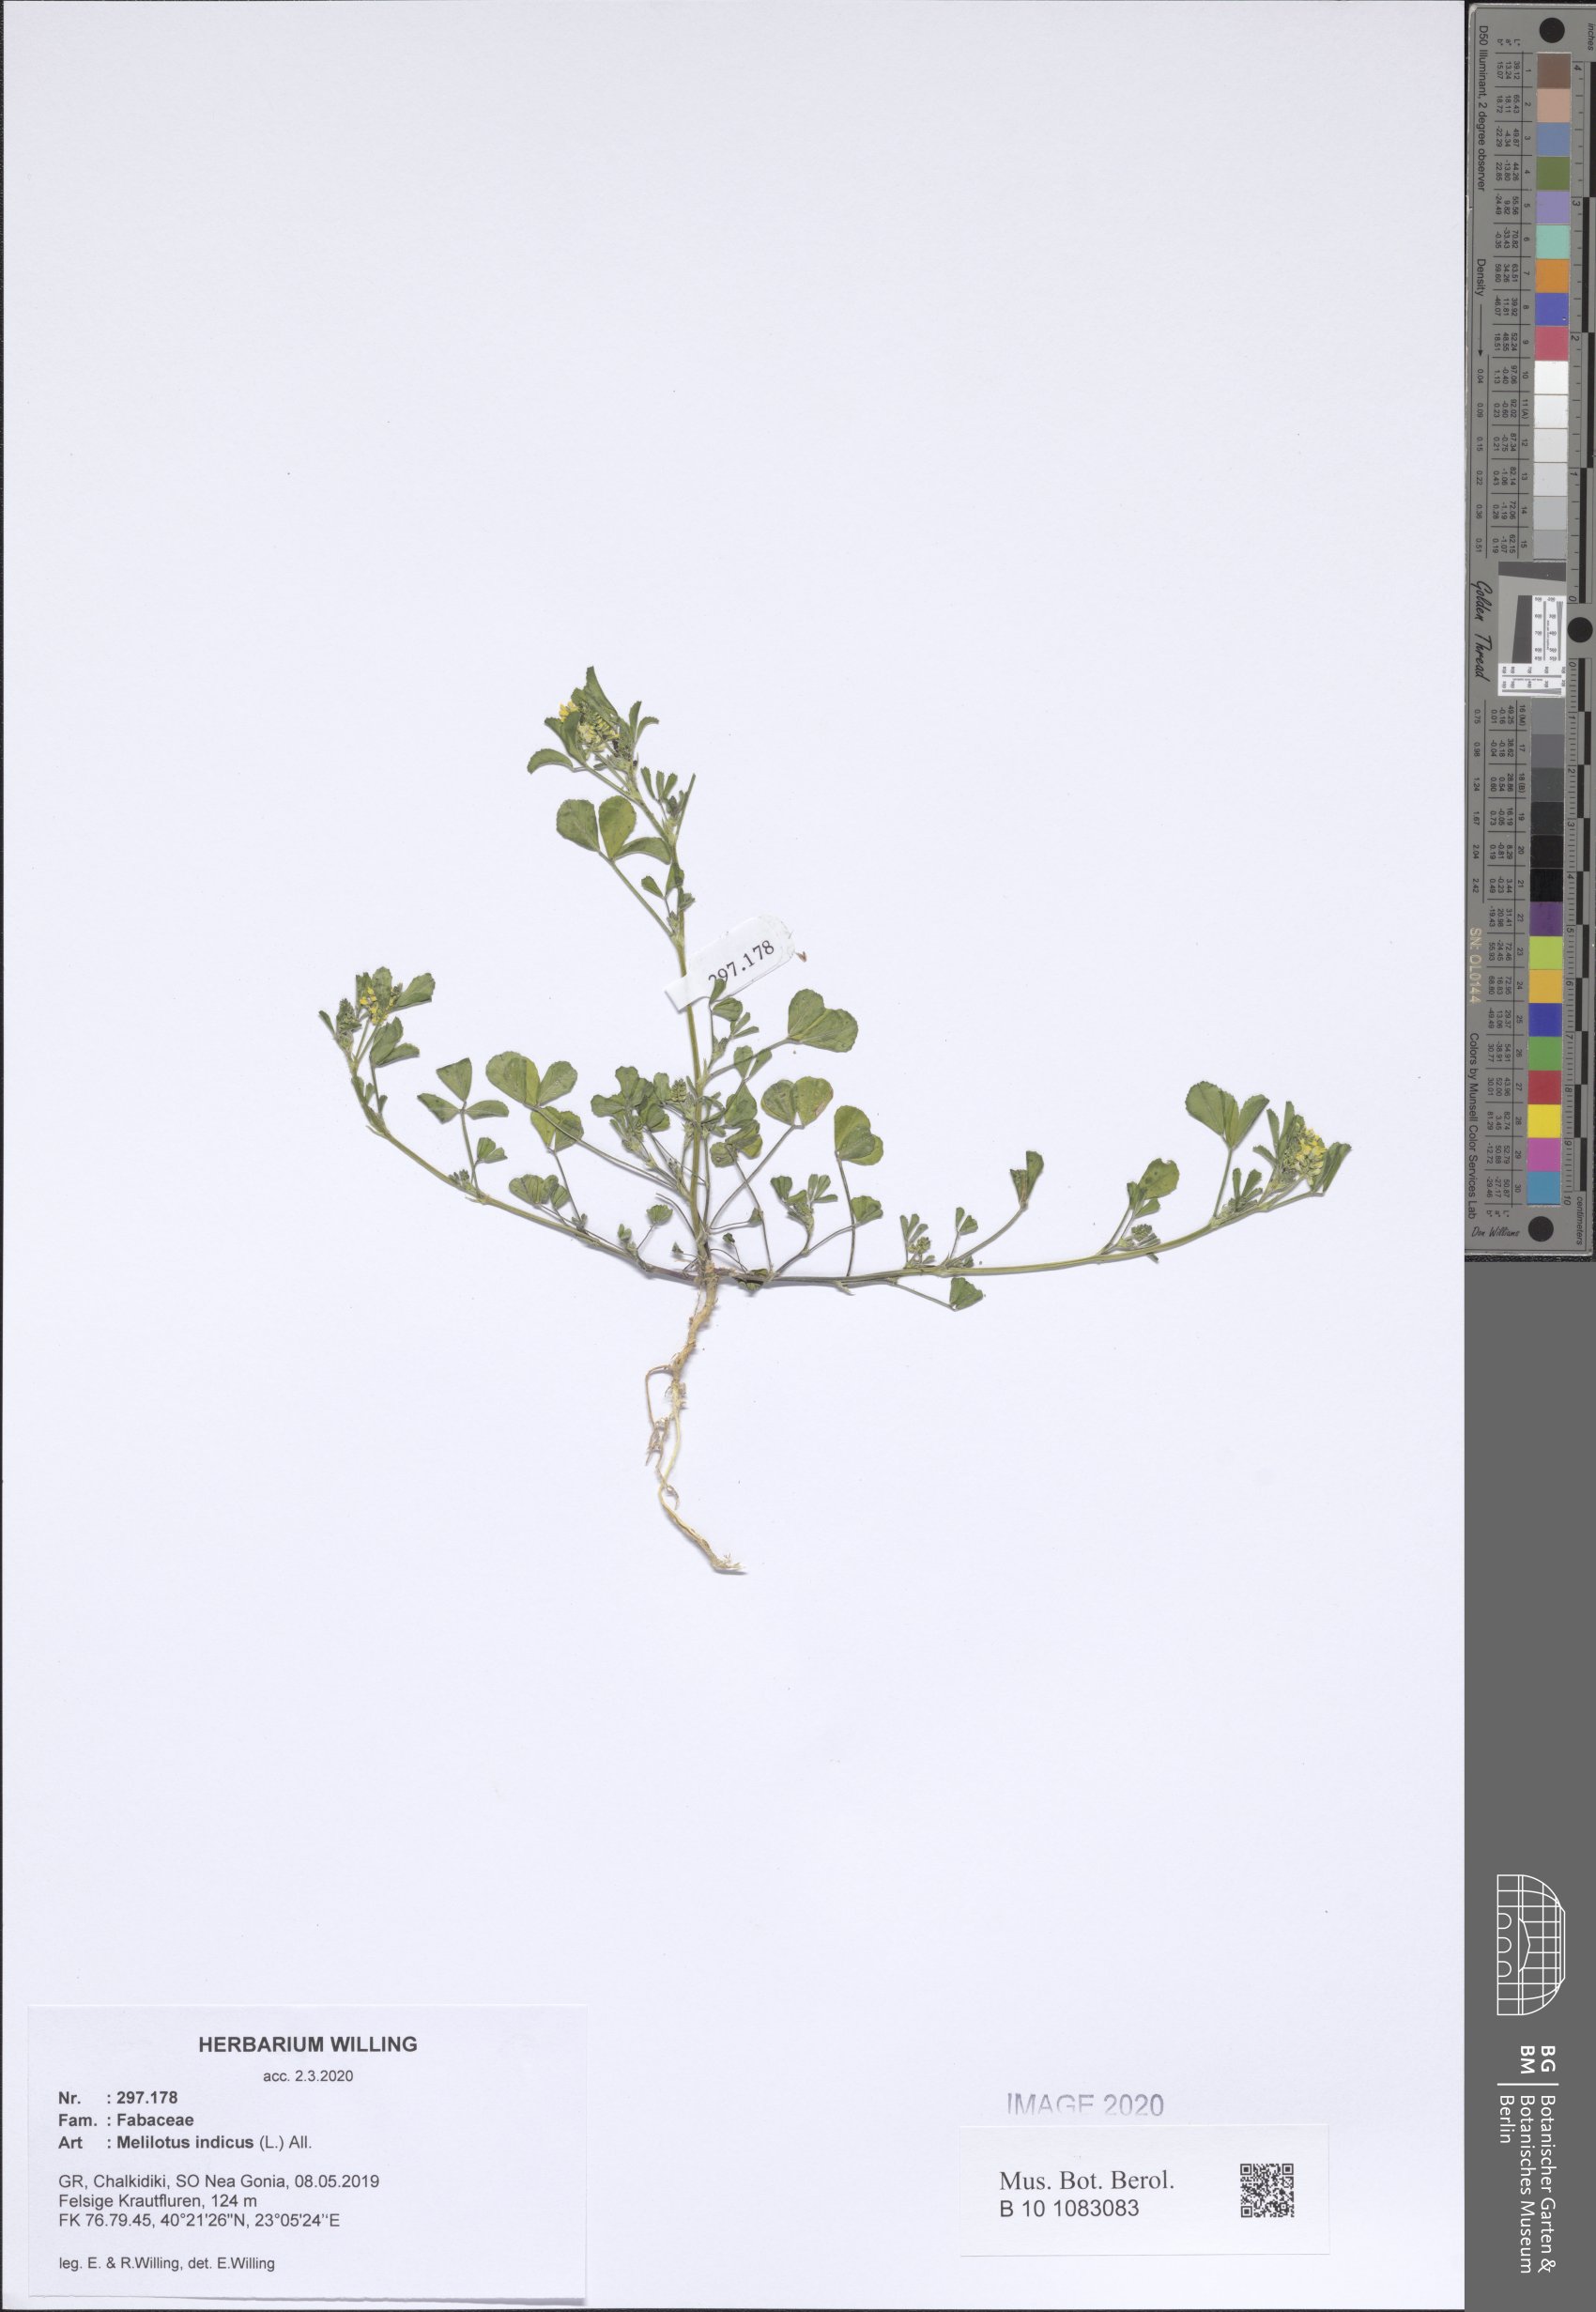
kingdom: Plantae
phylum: Tracheophyta
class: Magnoliopsida
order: Fabales
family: Fabaceae
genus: Melilotus
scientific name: Melilotus indicus
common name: Small melilot
